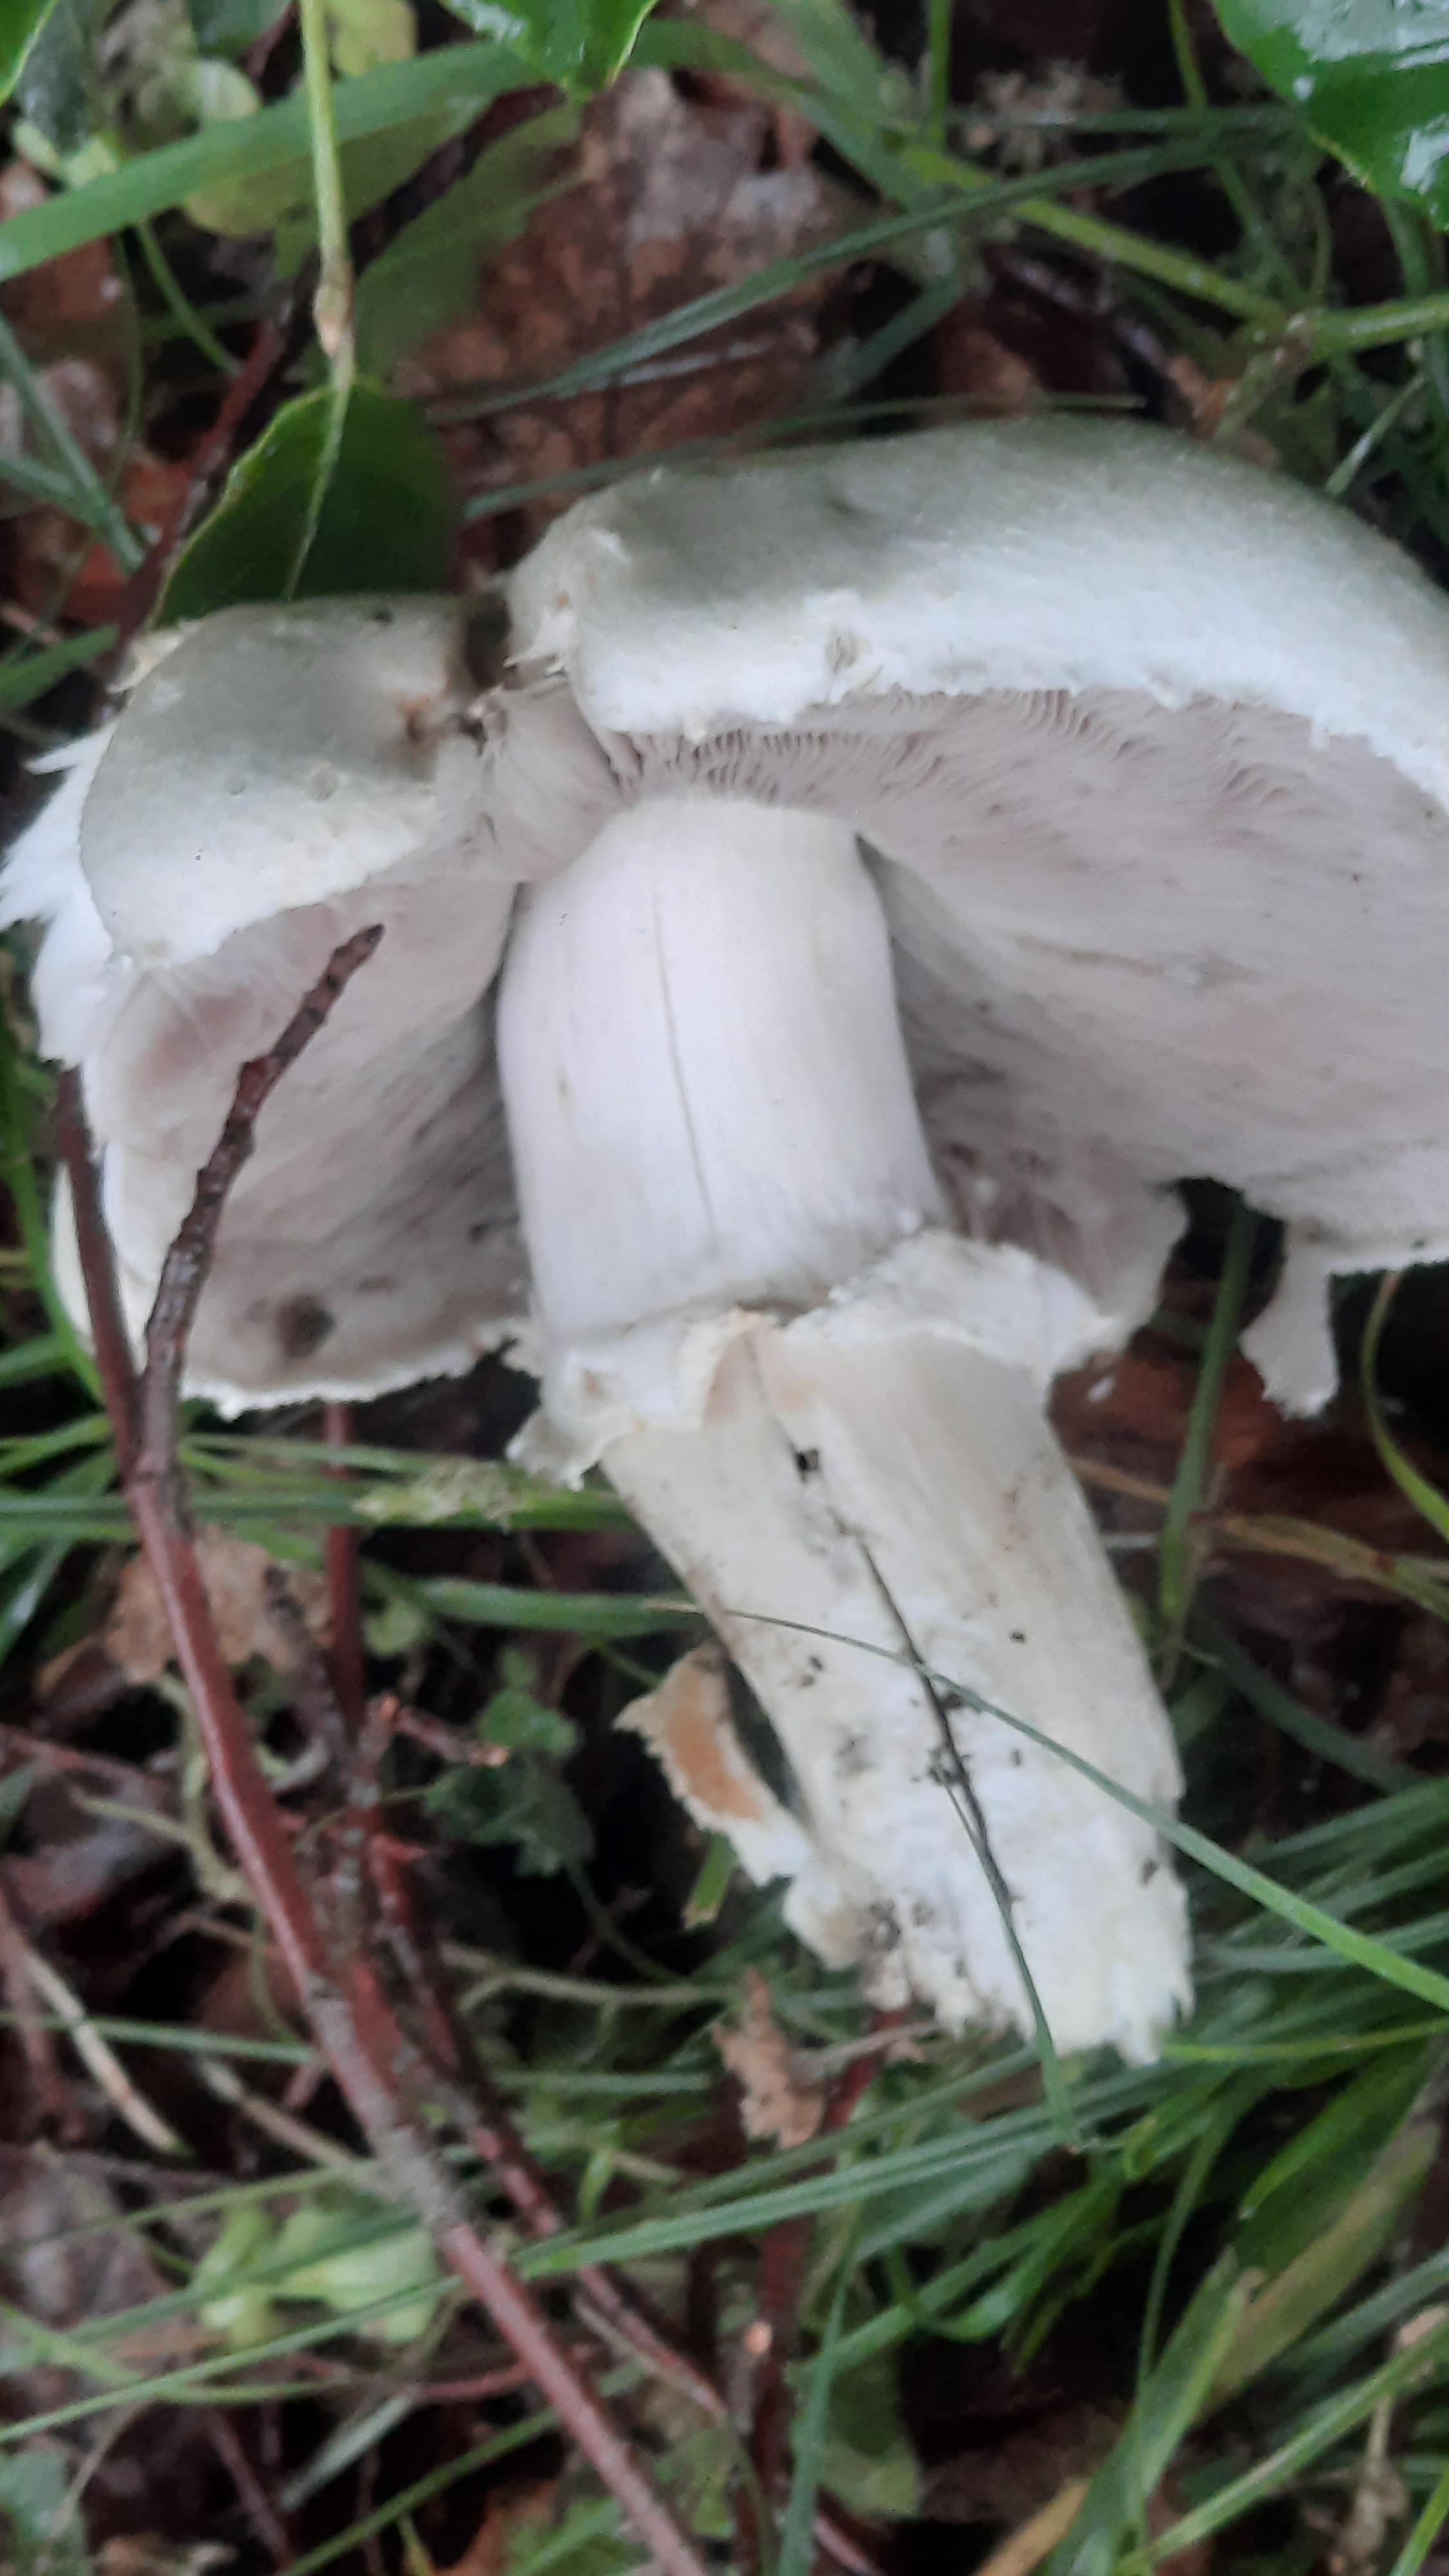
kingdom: Fungi
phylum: Basidiomycota
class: Agaricomycetes
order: Agaricales
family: Agaricaceae
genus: Agaricus
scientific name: Agaricus
